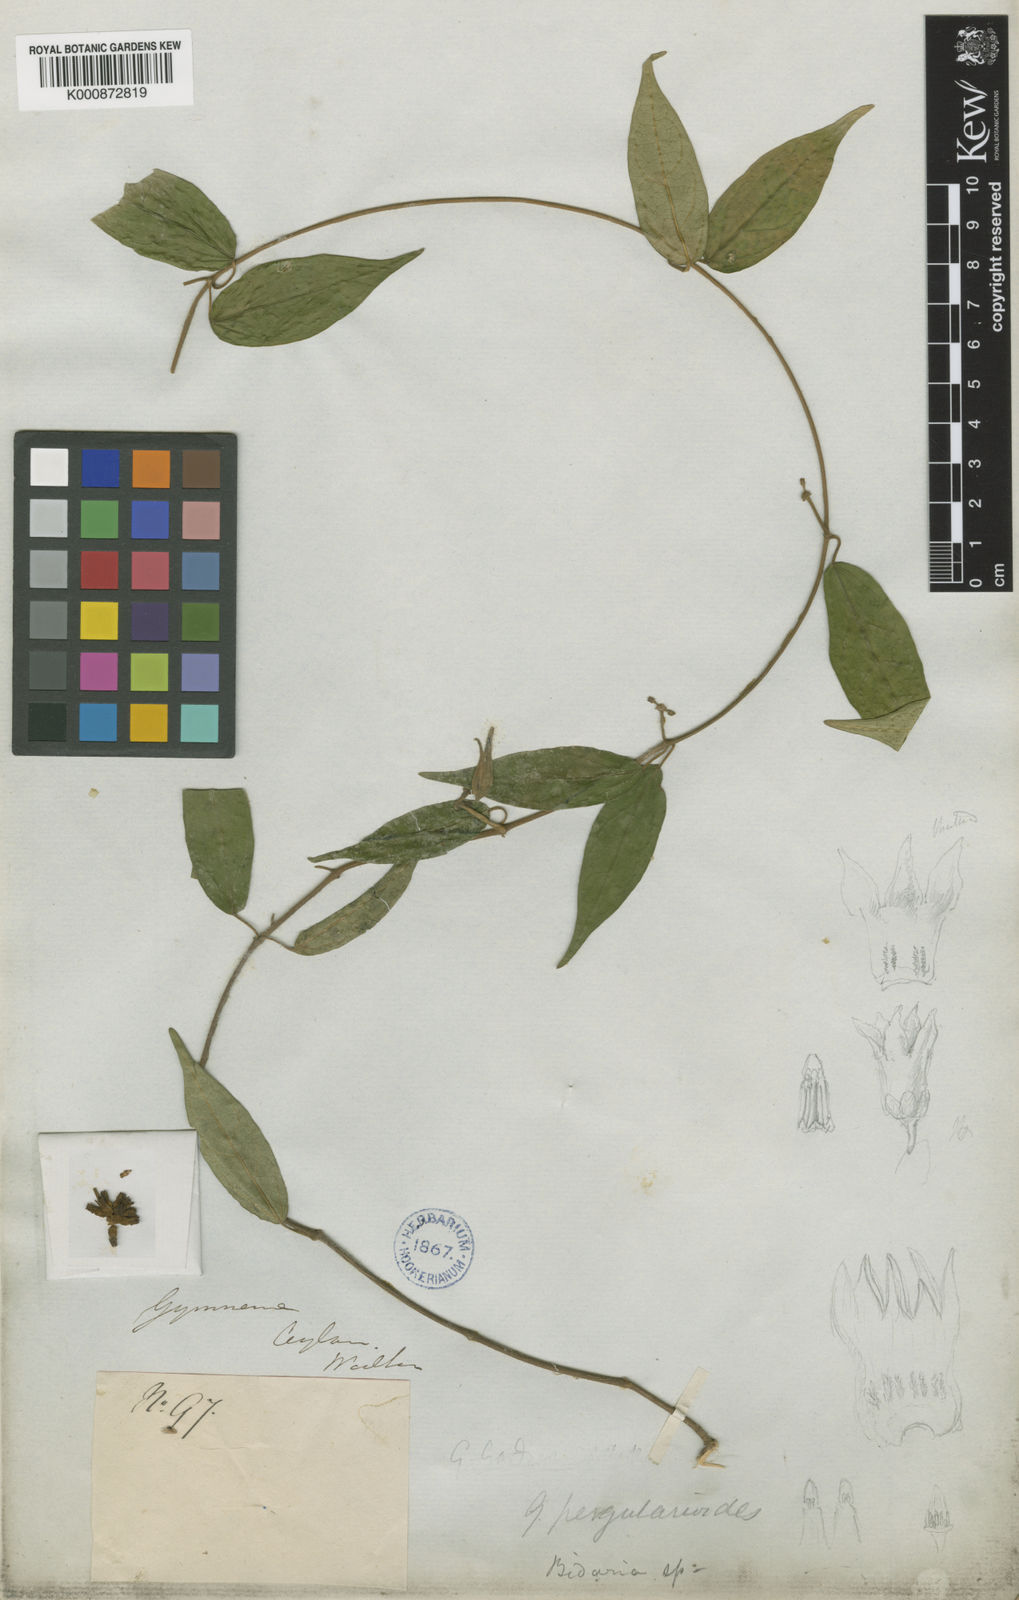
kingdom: Plantae
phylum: Tracheophyta
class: Magnoliopsida
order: Gentianales
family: Apocynaceae
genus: Gymnema
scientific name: Gymnema
